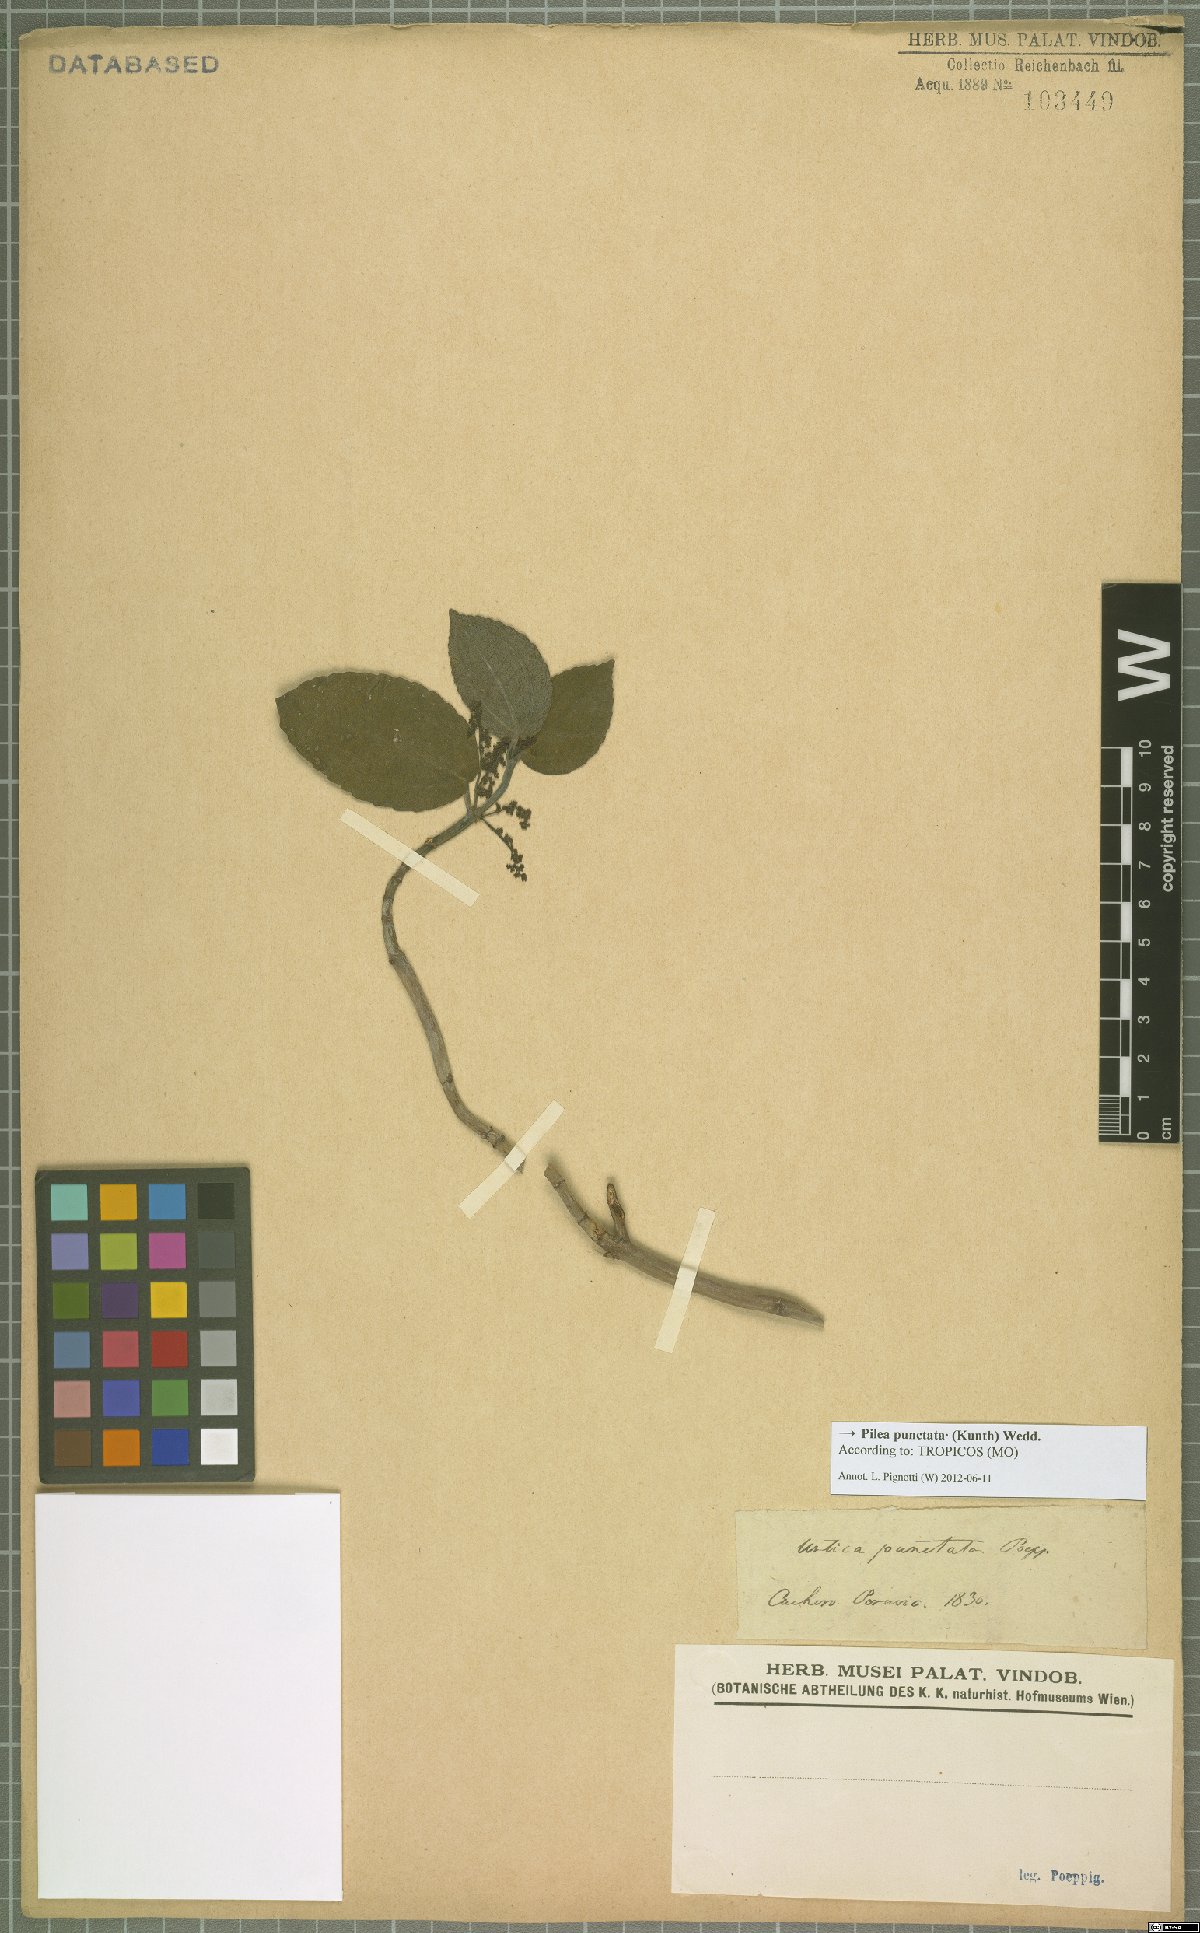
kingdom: Plantae
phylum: Tracheophyta
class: Magnoliopsida
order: Rosales
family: Urticaceae
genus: Pilea
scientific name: Pilea punctata
